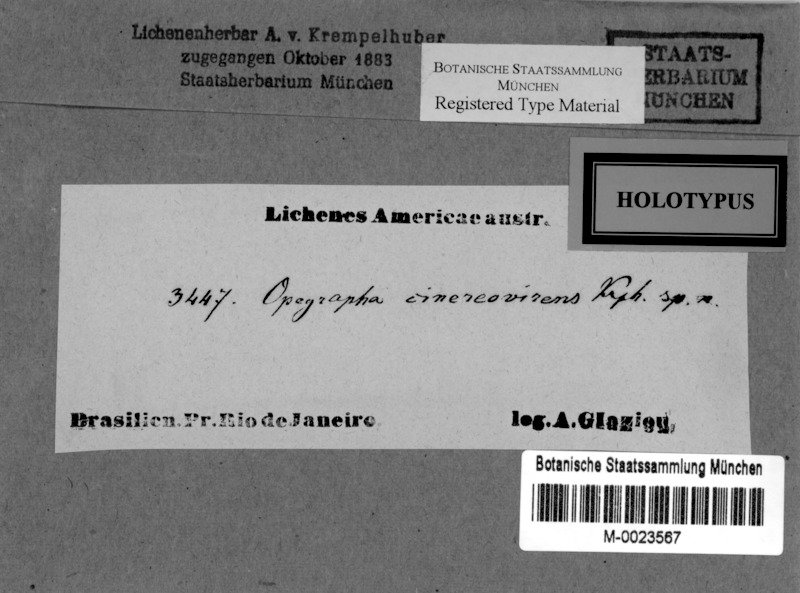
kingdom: Fungi
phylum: Ascomycota
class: Arthoniomycetes
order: Arthoniales
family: Opegraphaceae
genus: Opegrapha
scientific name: Opegrapha
